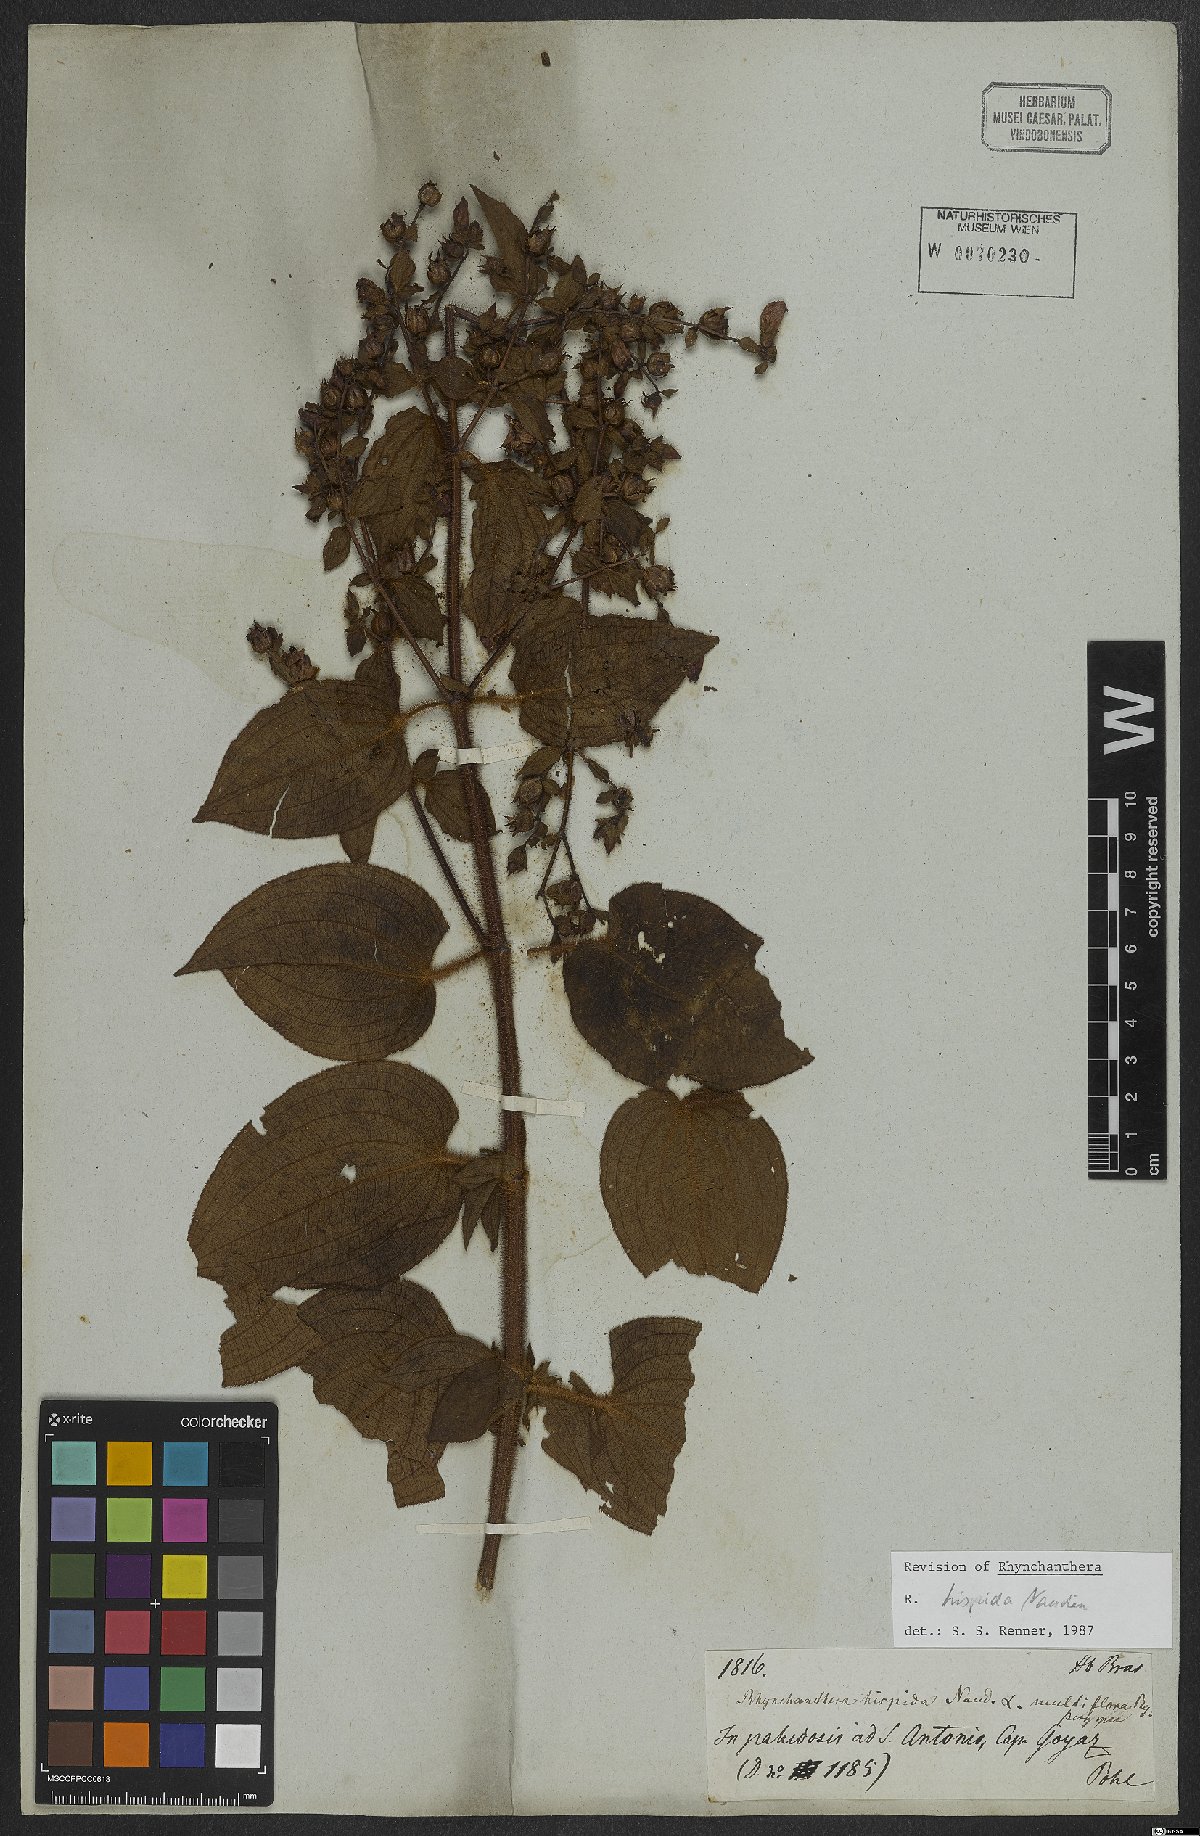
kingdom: Plantae
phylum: Tracheophyta
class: Magnoliopsida
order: Myrtales
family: Melastomataceae
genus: Rhynchanthera
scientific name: Rhynchanthera hispida
